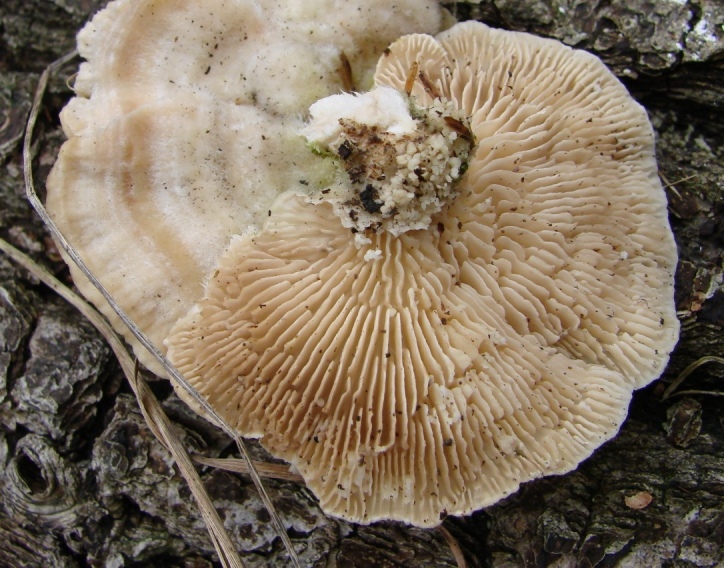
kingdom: Fungi
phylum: Basidiomycota
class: Agaricomycetes
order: Polyporales
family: Polyporaceae
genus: Lenzites
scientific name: Lenzites betulinus
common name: birke-læderporesvamp
